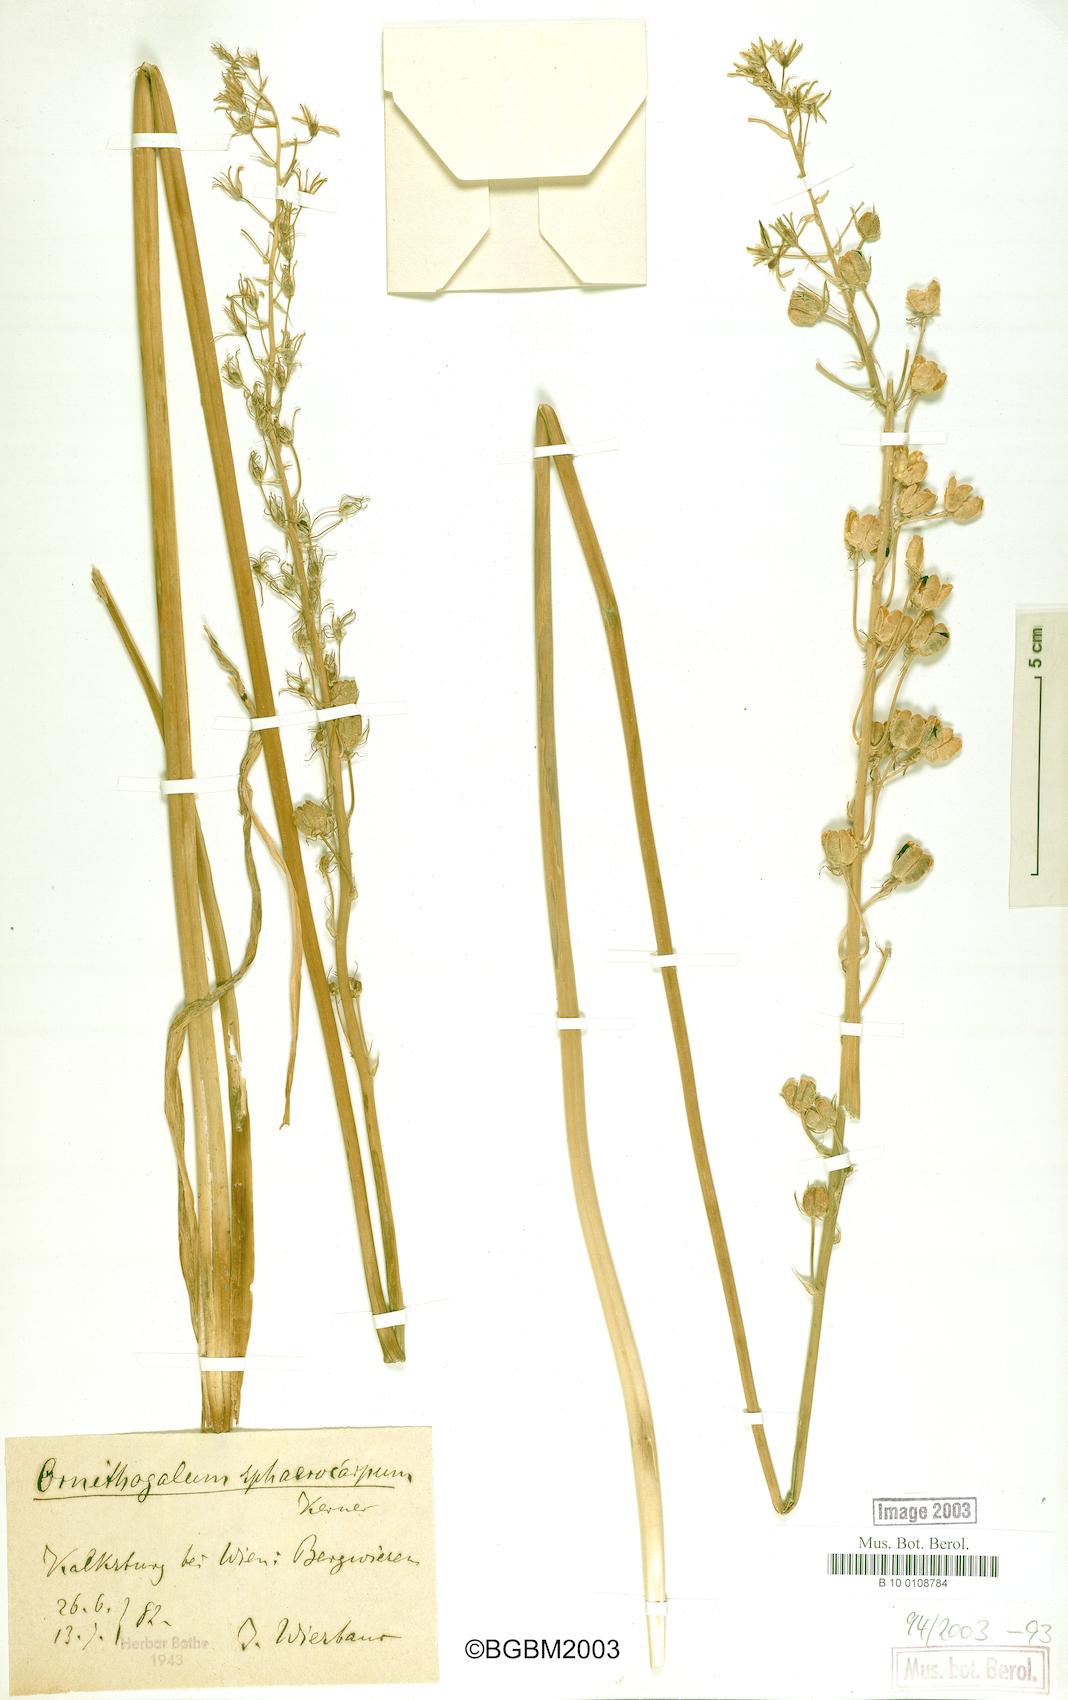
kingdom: Plantae
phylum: Tracheophyta
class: Liliopsida
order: Asparagales
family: Asparagaceae
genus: Ornithogalum
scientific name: Ornithogalum sphaerocarpum
